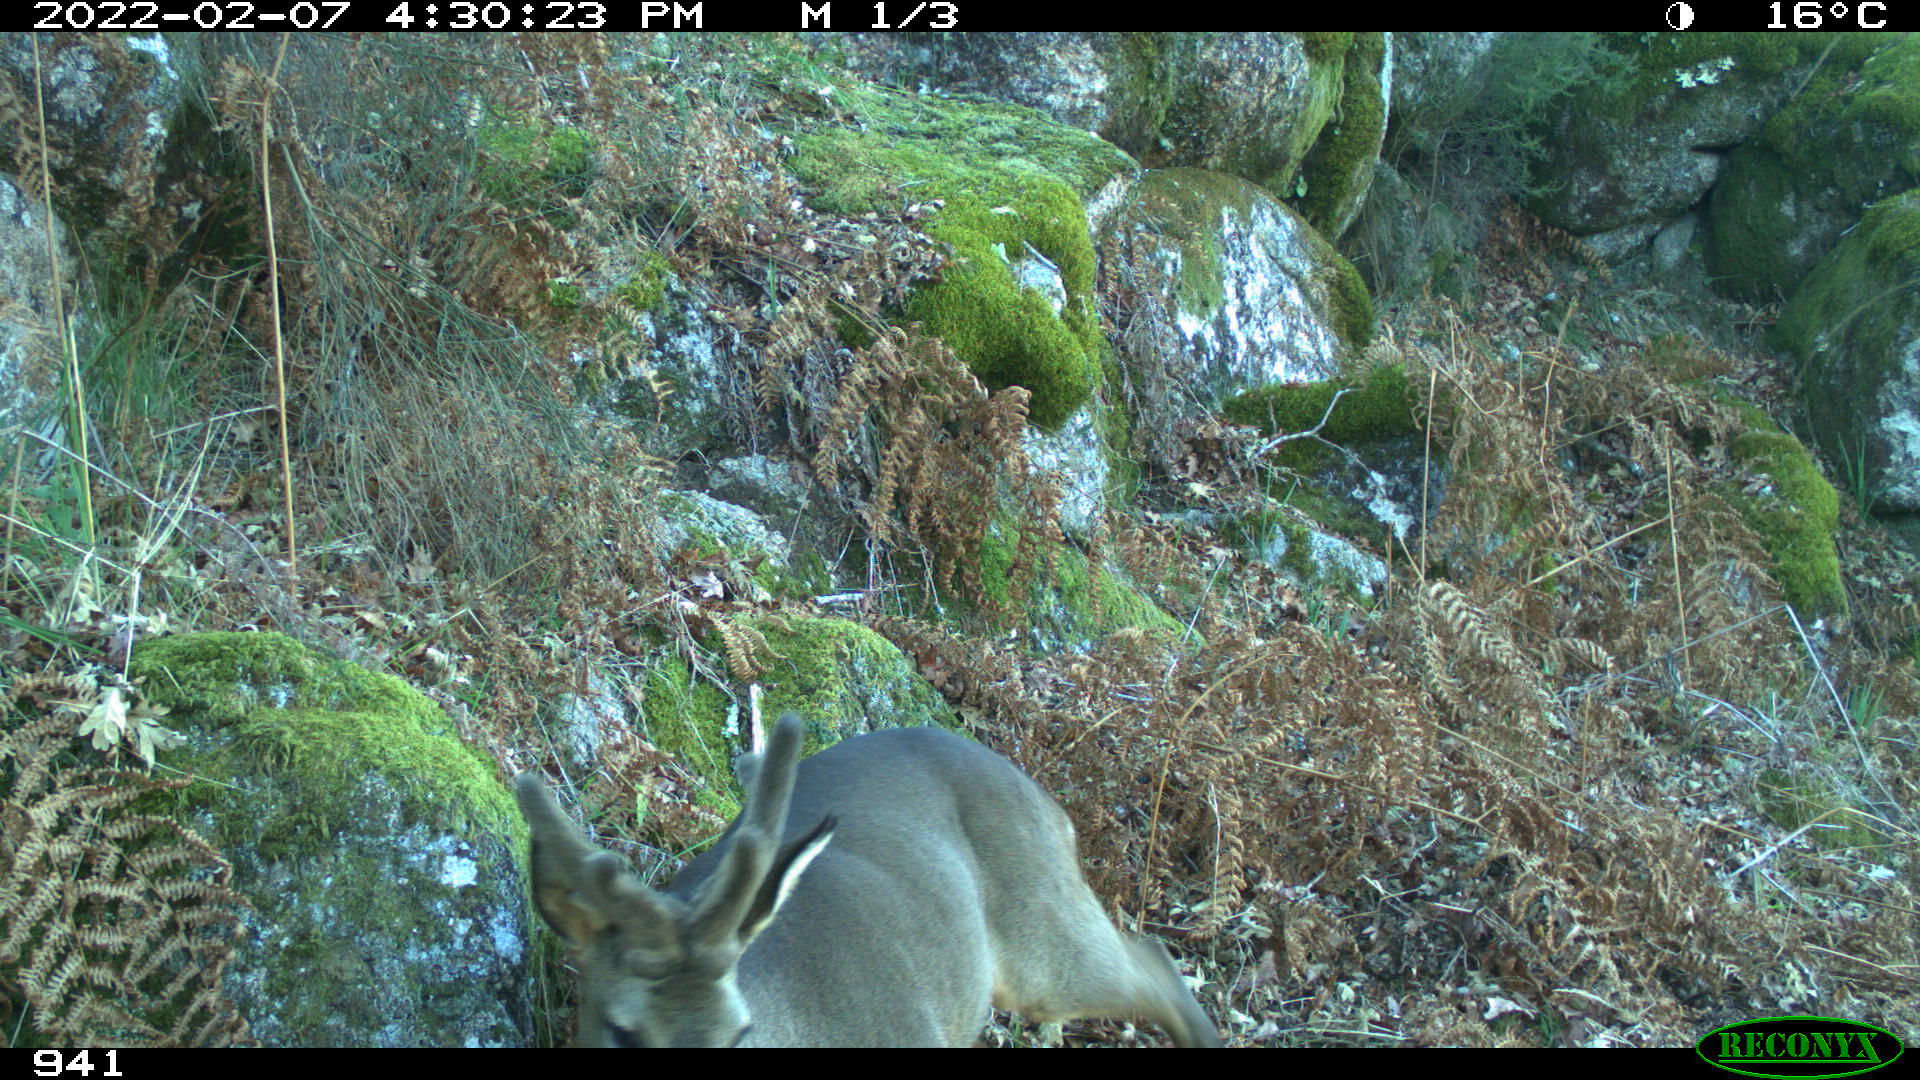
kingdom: Animalia
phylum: Chordata
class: Mammalia
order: Artiodactyla
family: Cervidae
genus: Capreolus
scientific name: Capreolus capreolus
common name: Western roe deer
